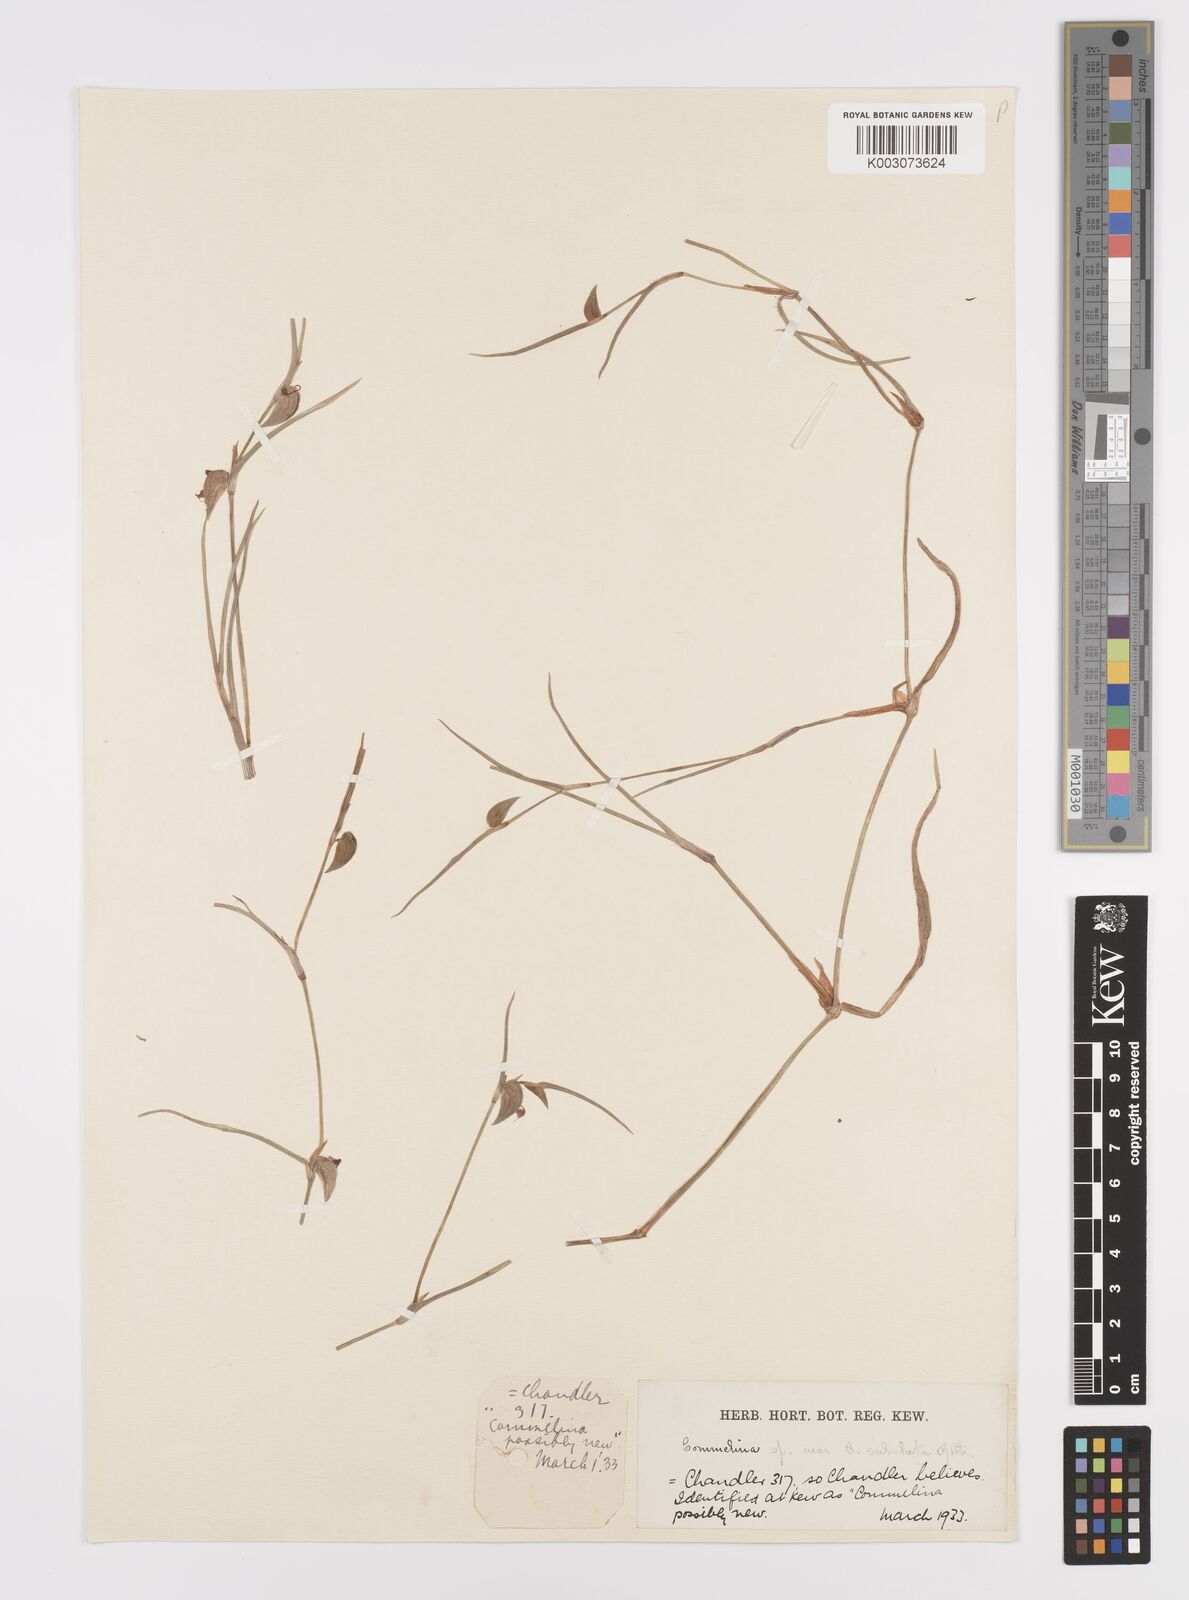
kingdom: Plantae
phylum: Tracheophyta
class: Liliopsida
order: Commelinales
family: Commelinaceae
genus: Commelina
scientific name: Commelina purpurea
